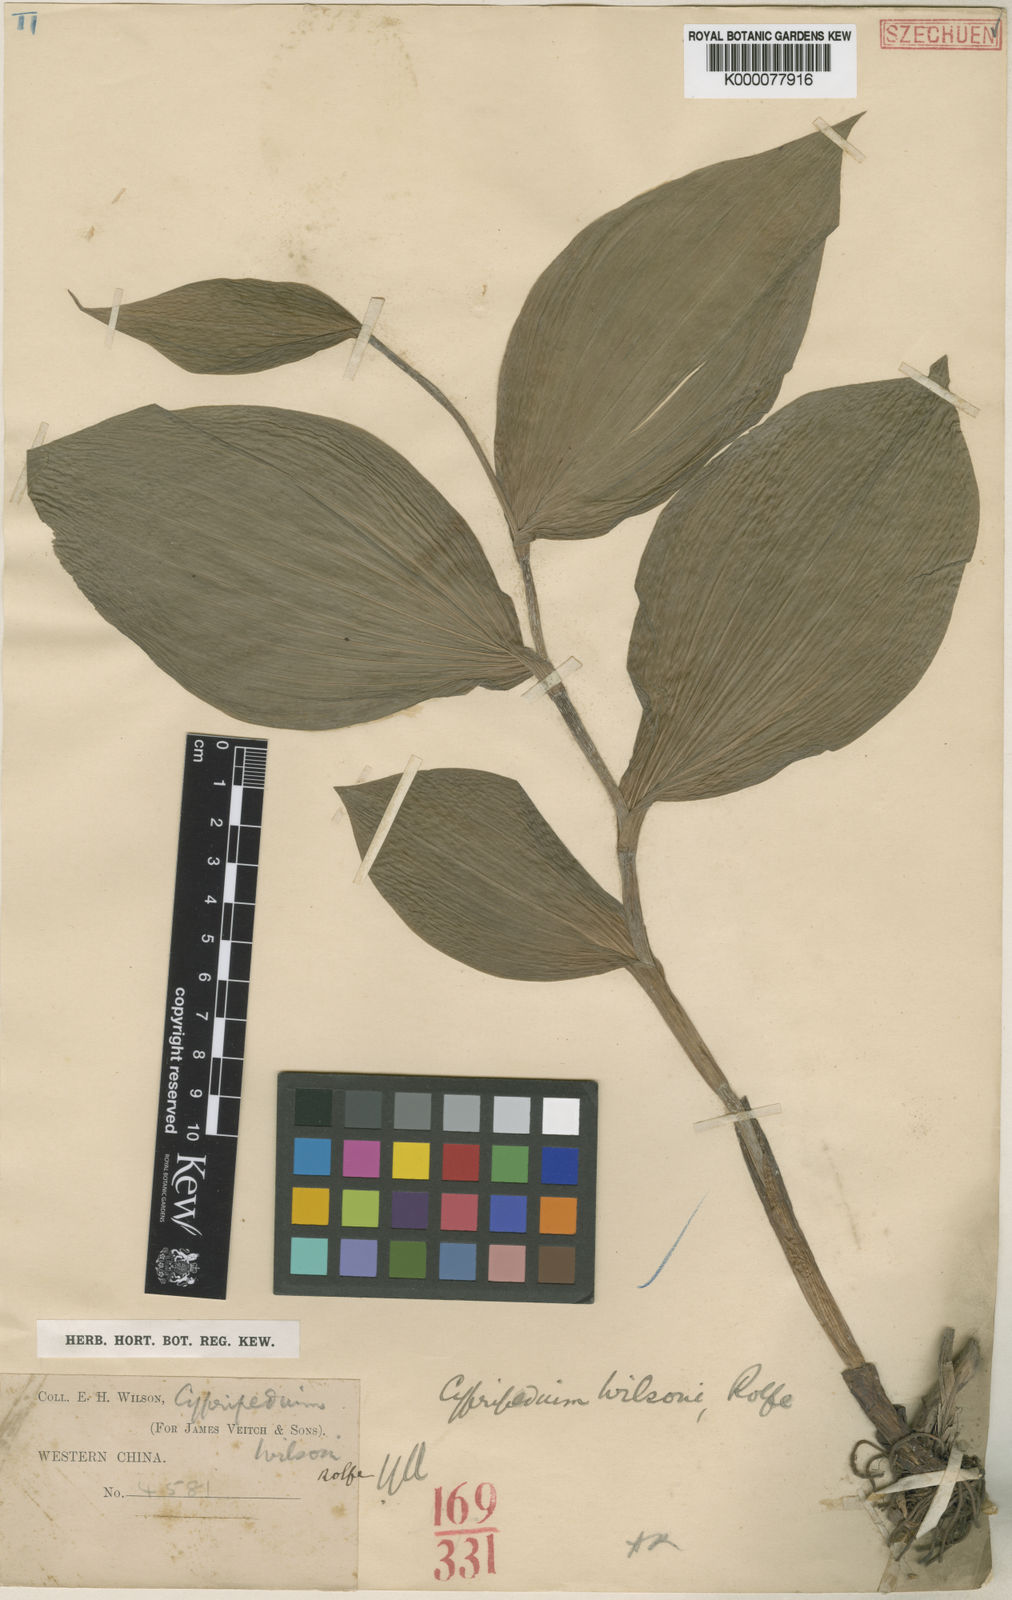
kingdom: Plantae
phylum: Tracheophyta
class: Liliopsida
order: Asparagales
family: Orchidaceae
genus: Cypripedium
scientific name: Cypripedium fasciolatum
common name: Striped lady slipper
